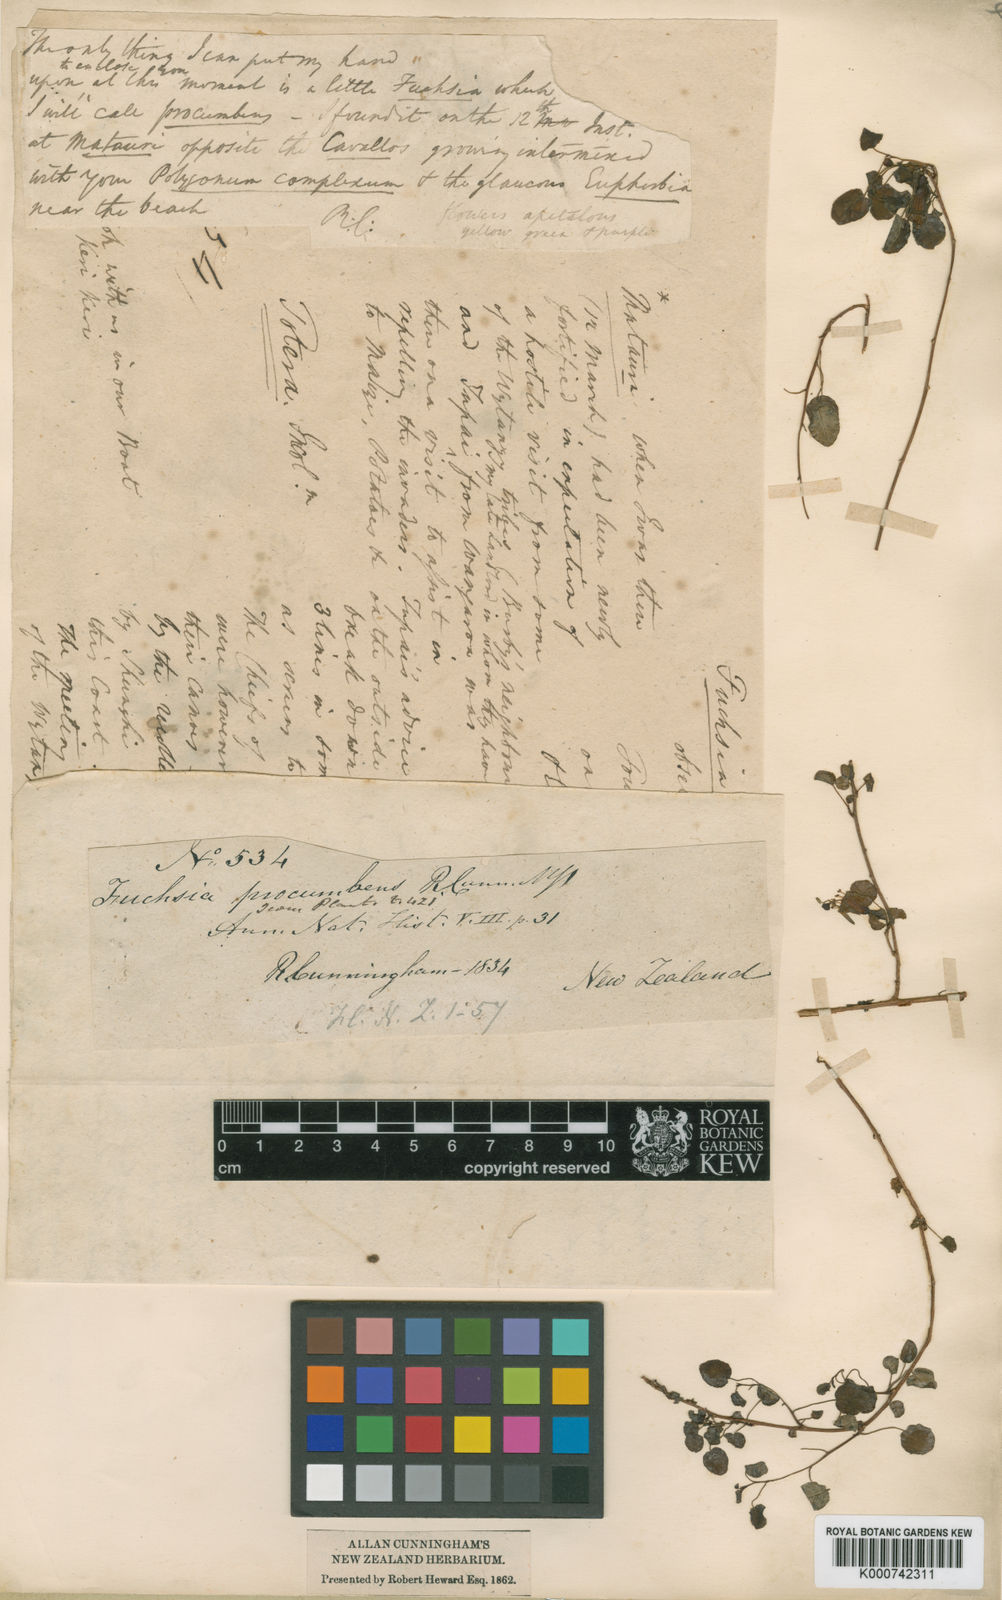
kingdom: Plantae
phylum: Tracheophyta
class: Magnoliopsida
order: Myrtales
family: Onagraceae
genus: Fuchsia
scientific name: Fuchsia procumbens
